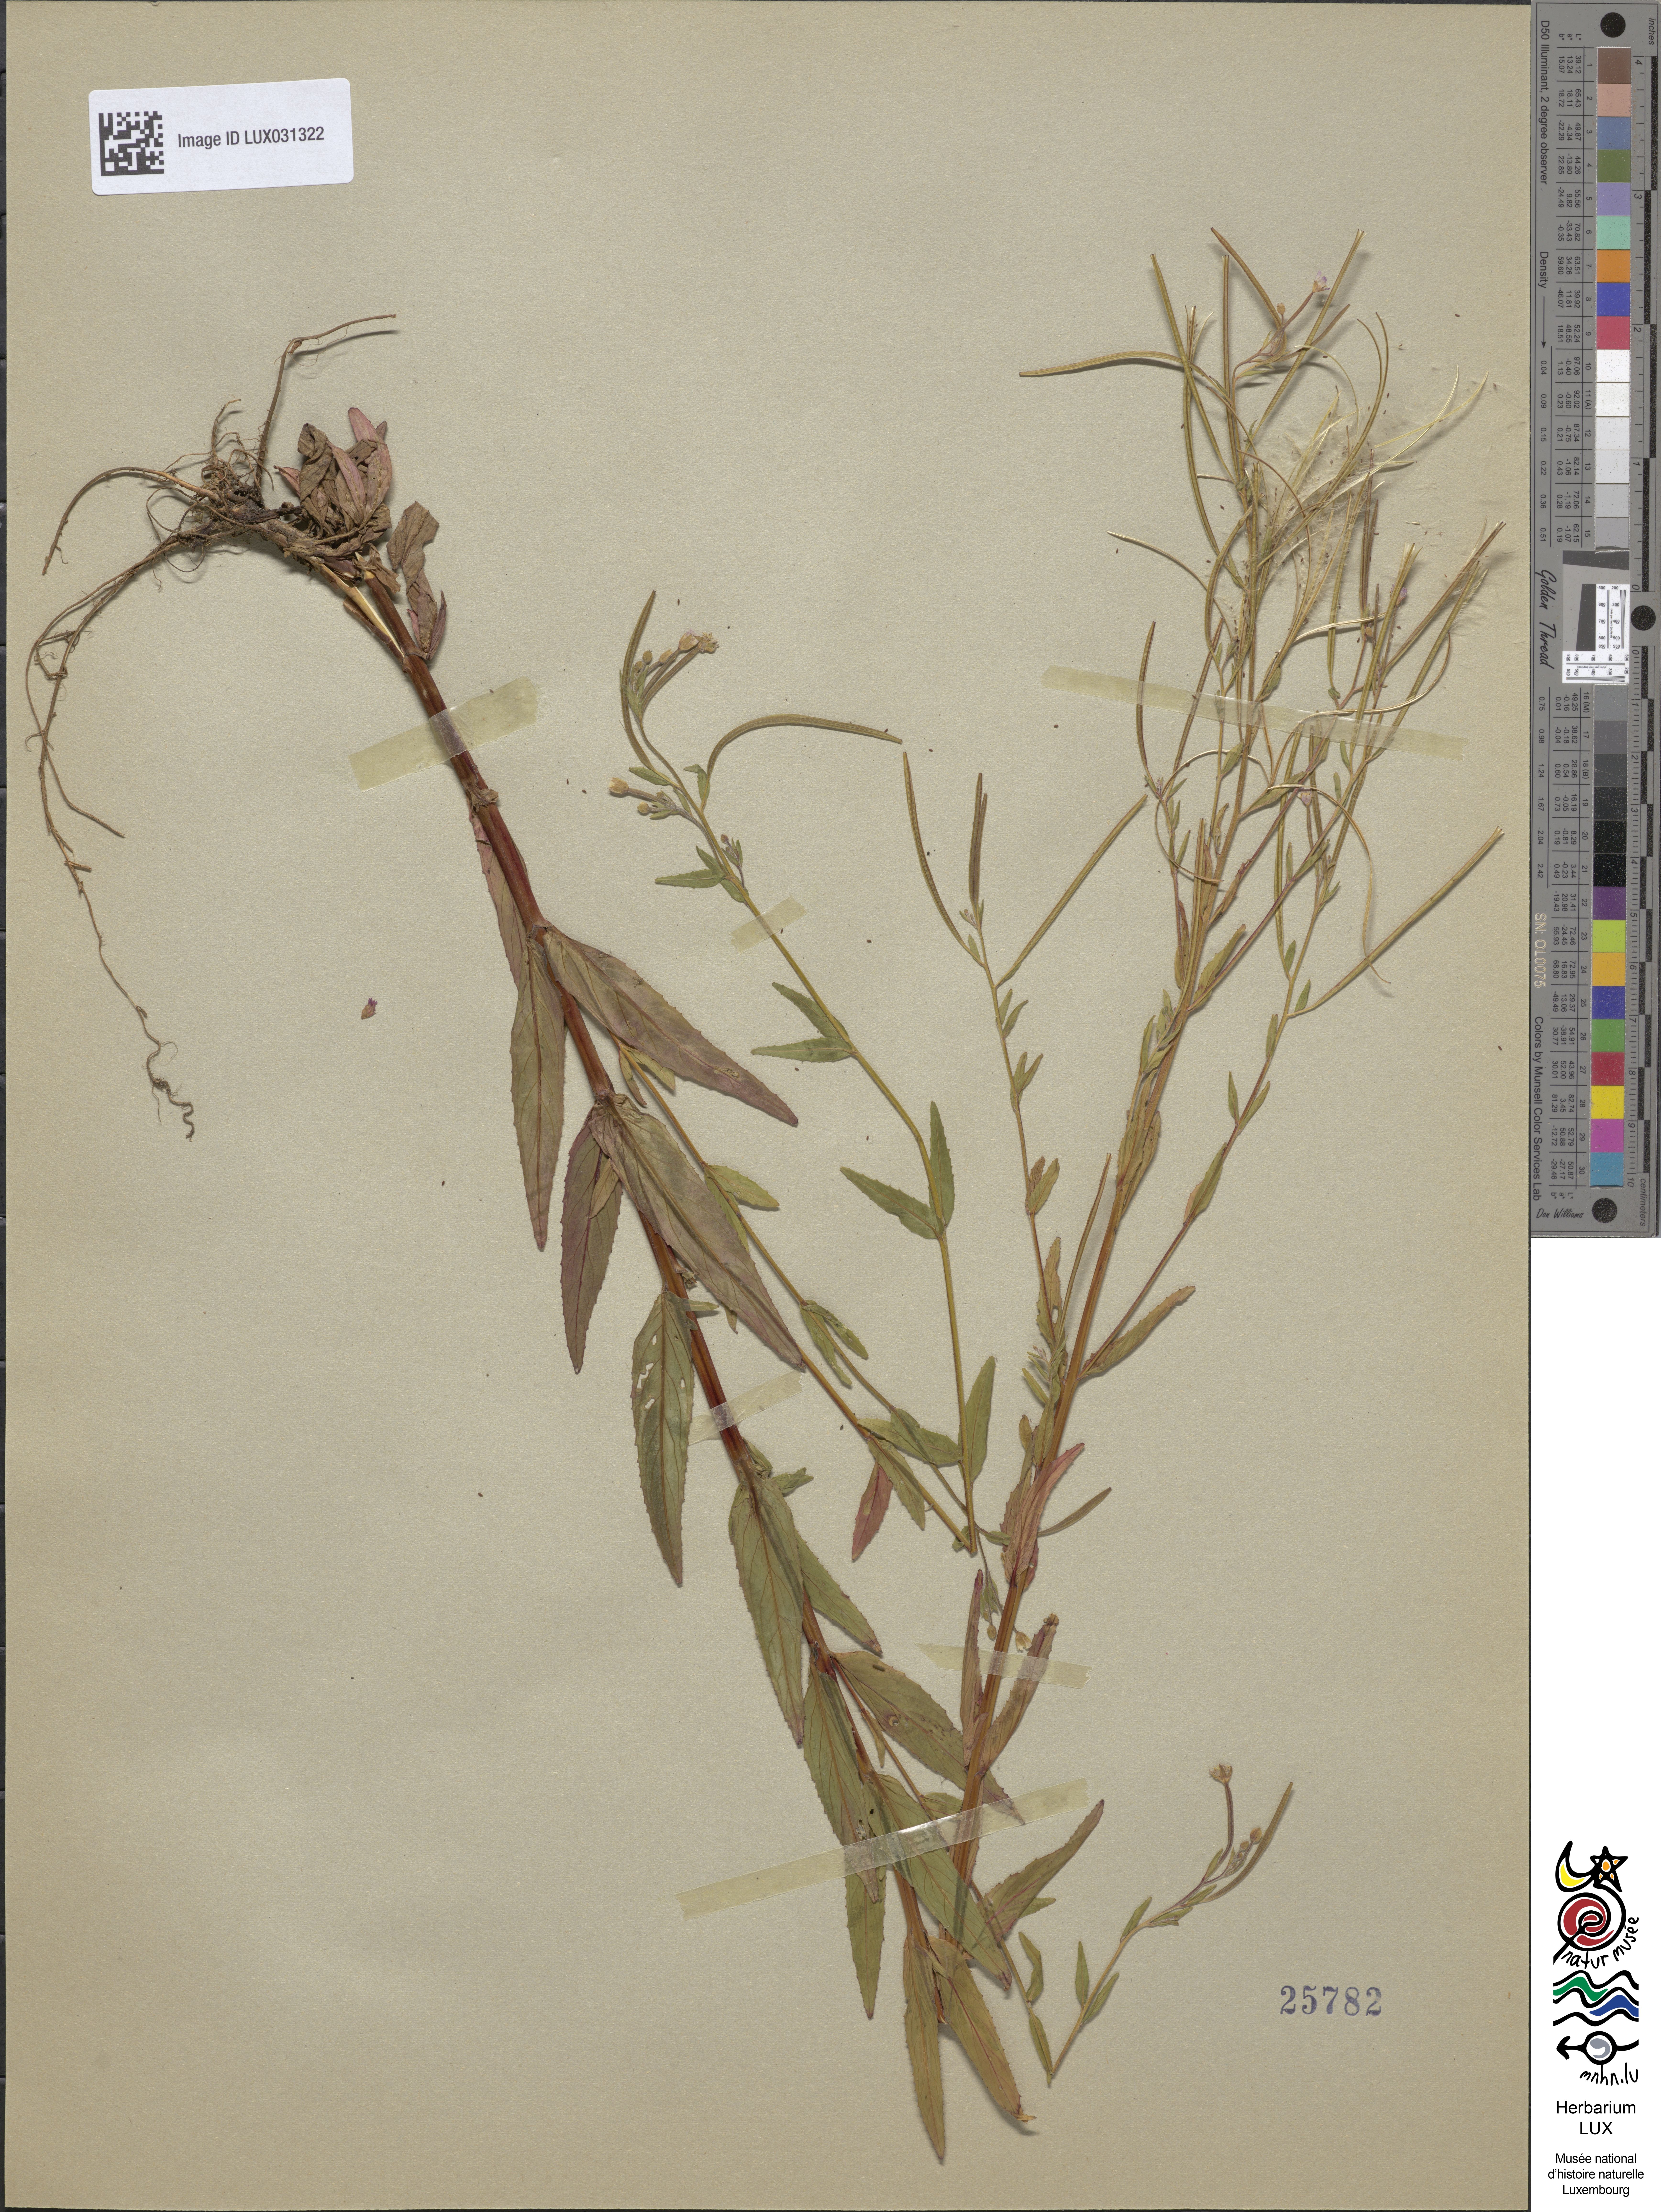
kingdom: Plantae
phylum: Tracheophyta
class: Magnoliopsida
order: Myrtales
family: Onagraceae
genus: Epilobium
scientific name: Epilobium ciliatum
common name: American willowherb
